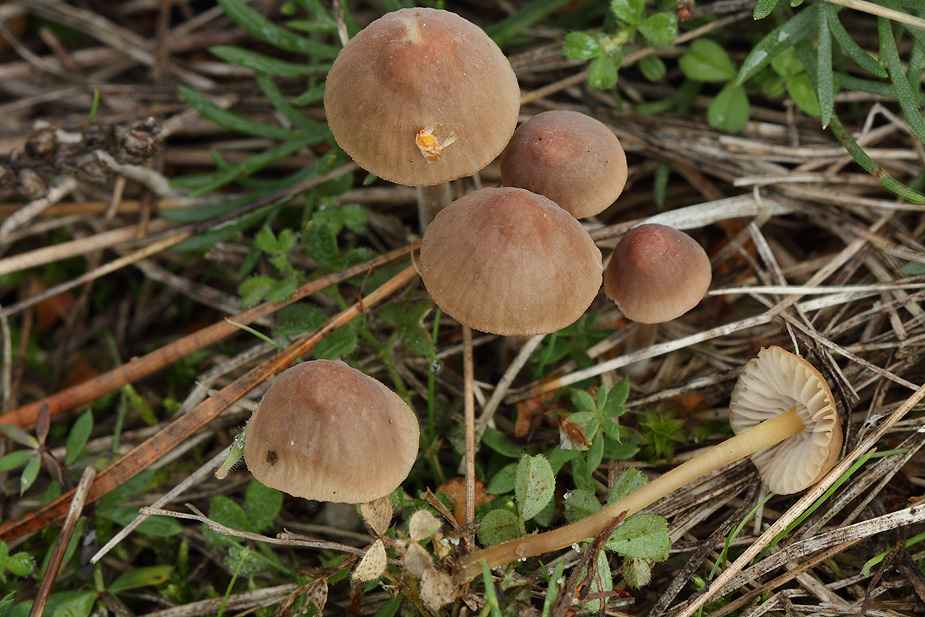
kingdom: Fungi
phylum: Basidiomycota
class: Agaricomycetes
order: Agaricales
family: Mycenaceae
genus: Mycena
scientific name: Mycena olivaceomarginata
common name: brunægget huesvamp
